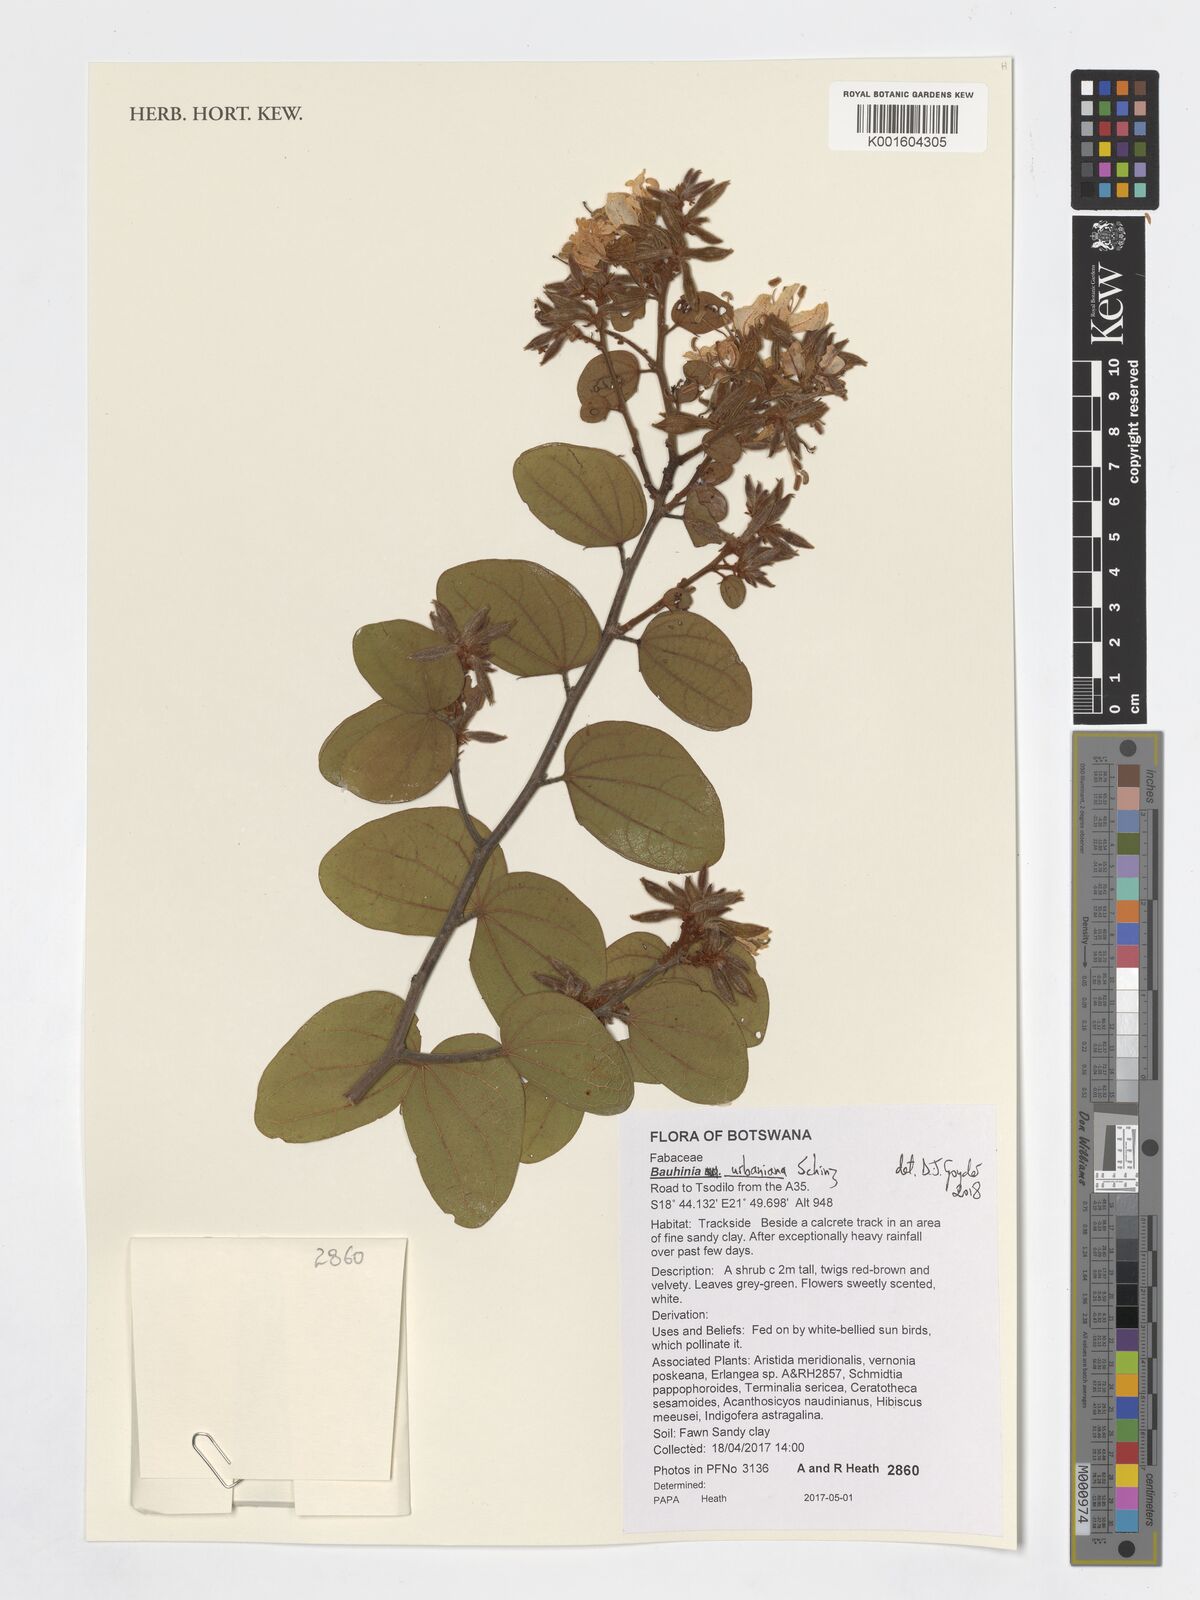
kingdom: Plantae
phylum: Tracheophyta
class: Magnoliopsida
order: Fabales
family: Fabaceae
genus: Bauhinia
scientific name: Bauhinia urbaniana
